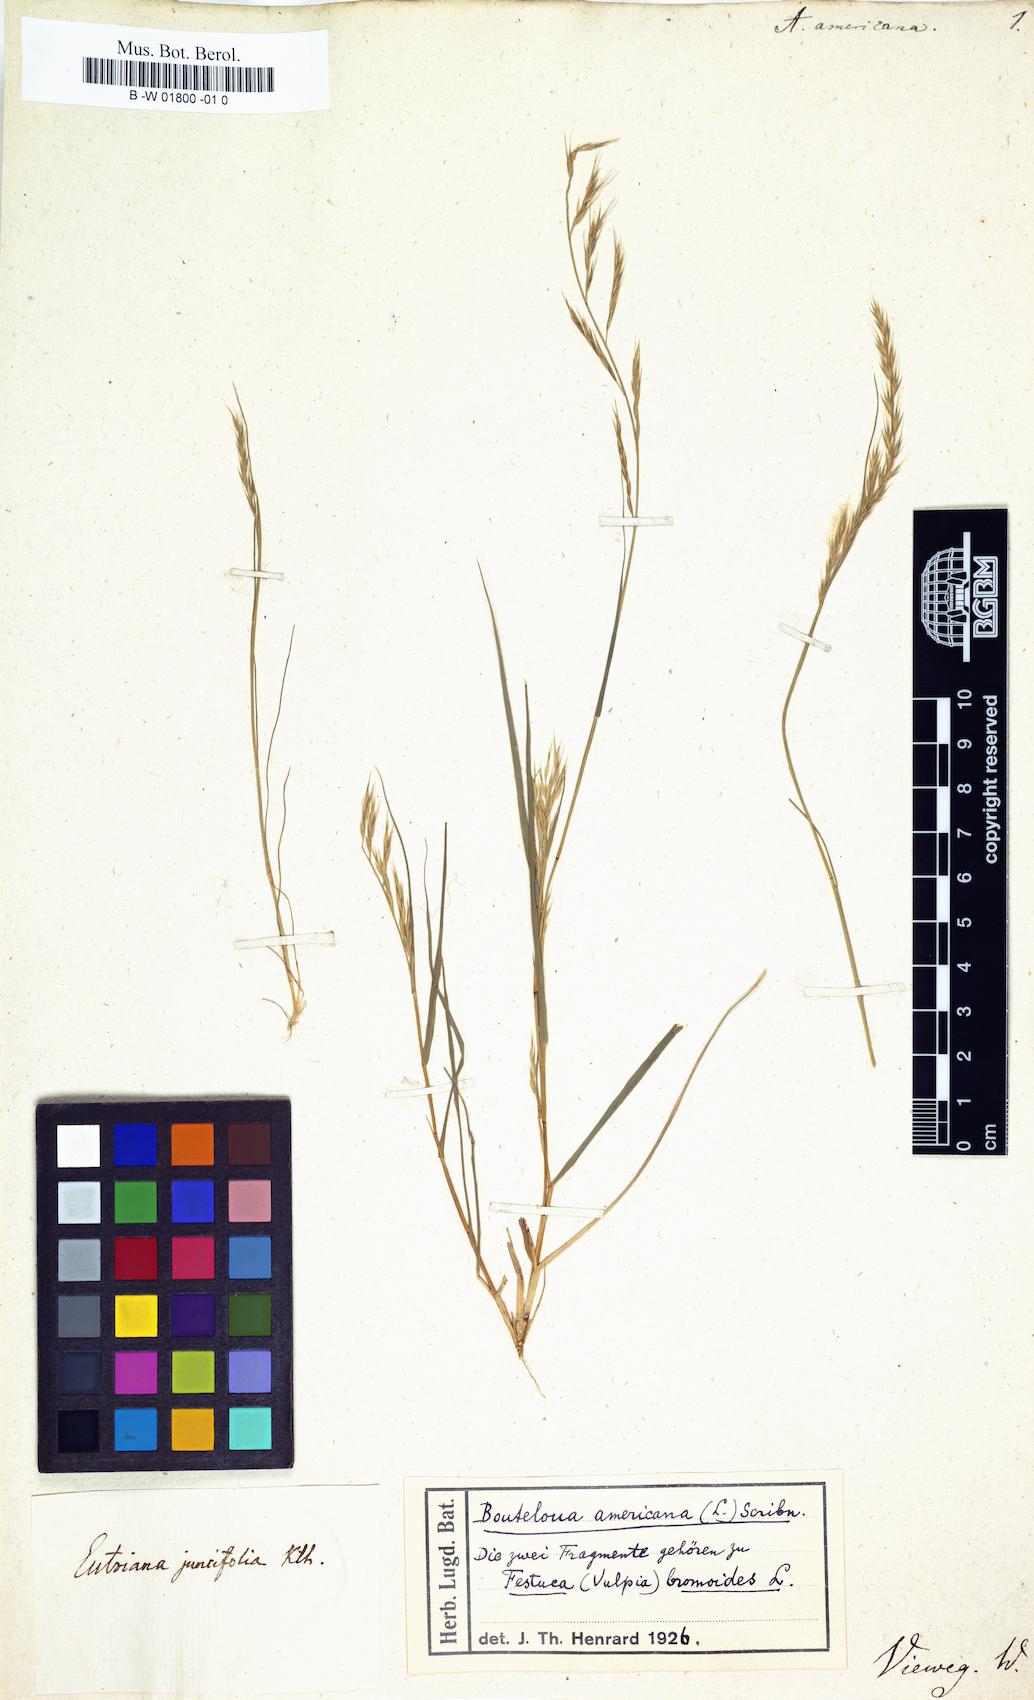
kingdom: Plantae
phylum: Tracheophyta
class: Liliopsida
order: Poales
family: Poaceae
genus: Bouteloua
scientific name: Bouteloua americana
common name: Mule grass
